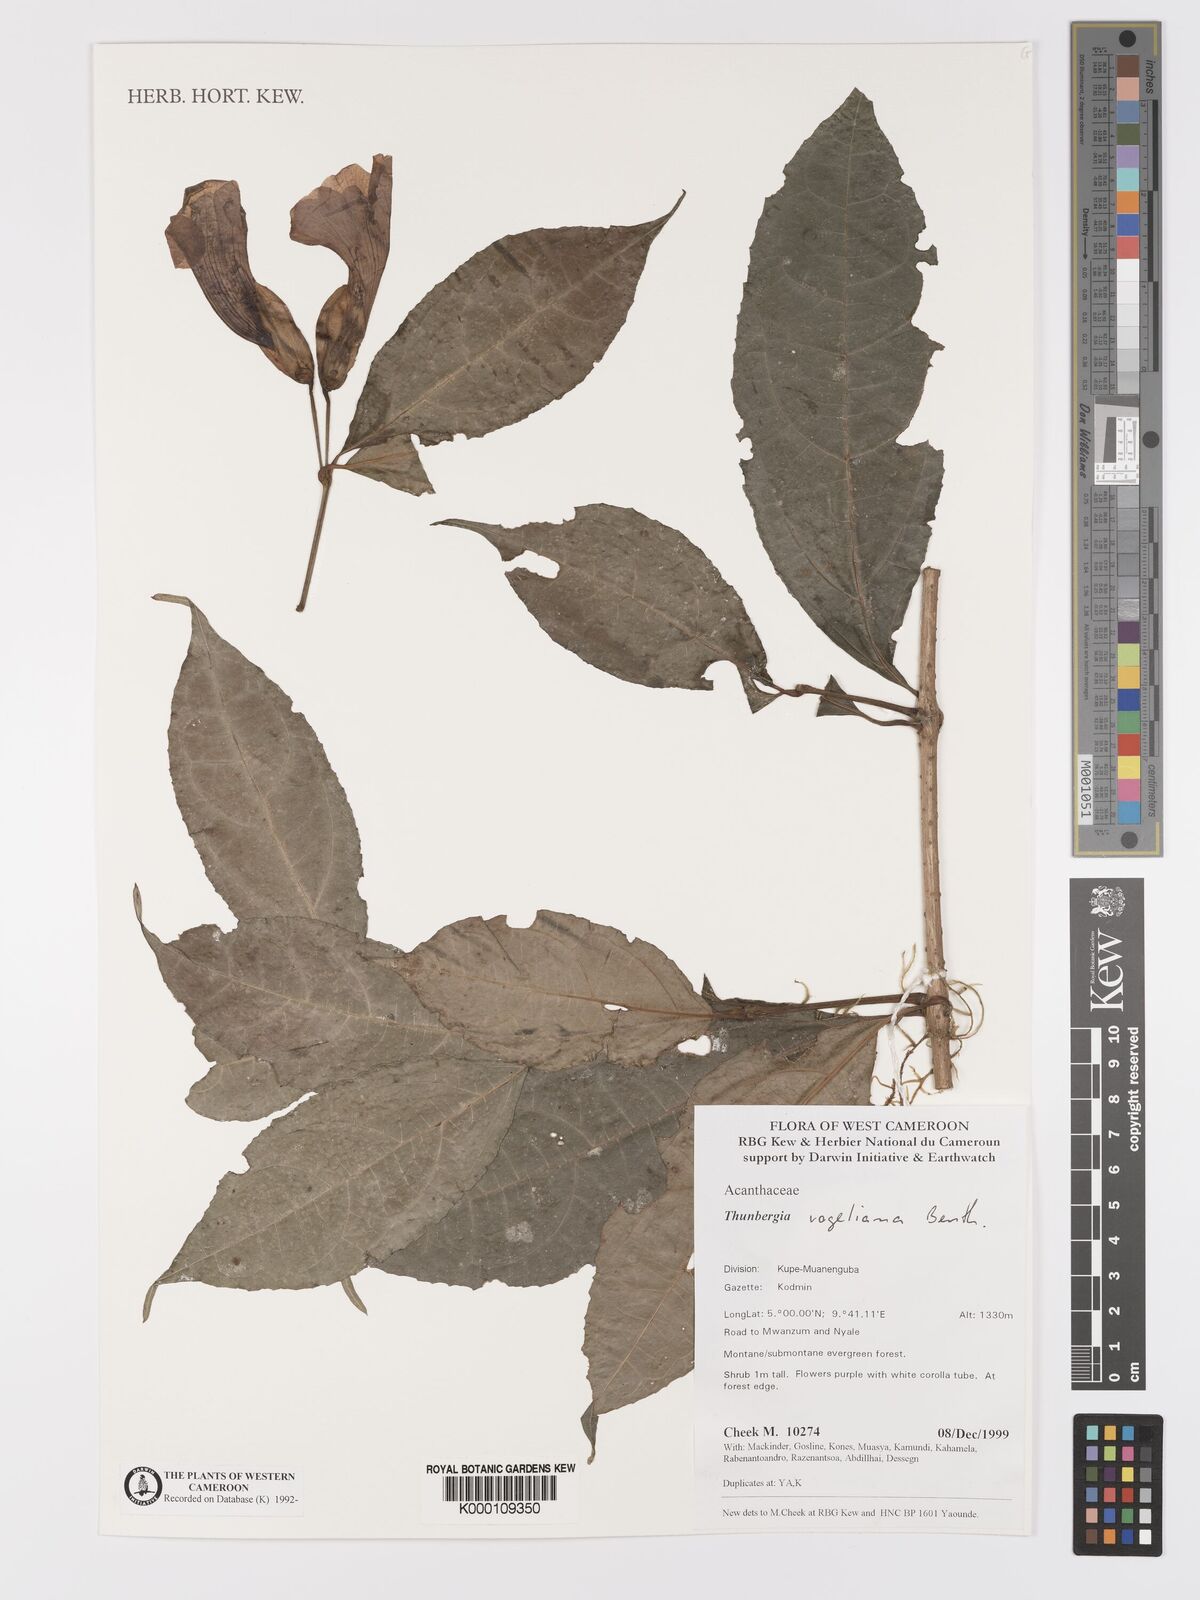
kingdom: Plantae
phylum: Tracheophyta
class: Magnoliopsida
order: Lamiales
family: Acanthaceae
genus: Thunbergia
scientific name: Thunbergia vogeliana
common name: Acanthaceae
